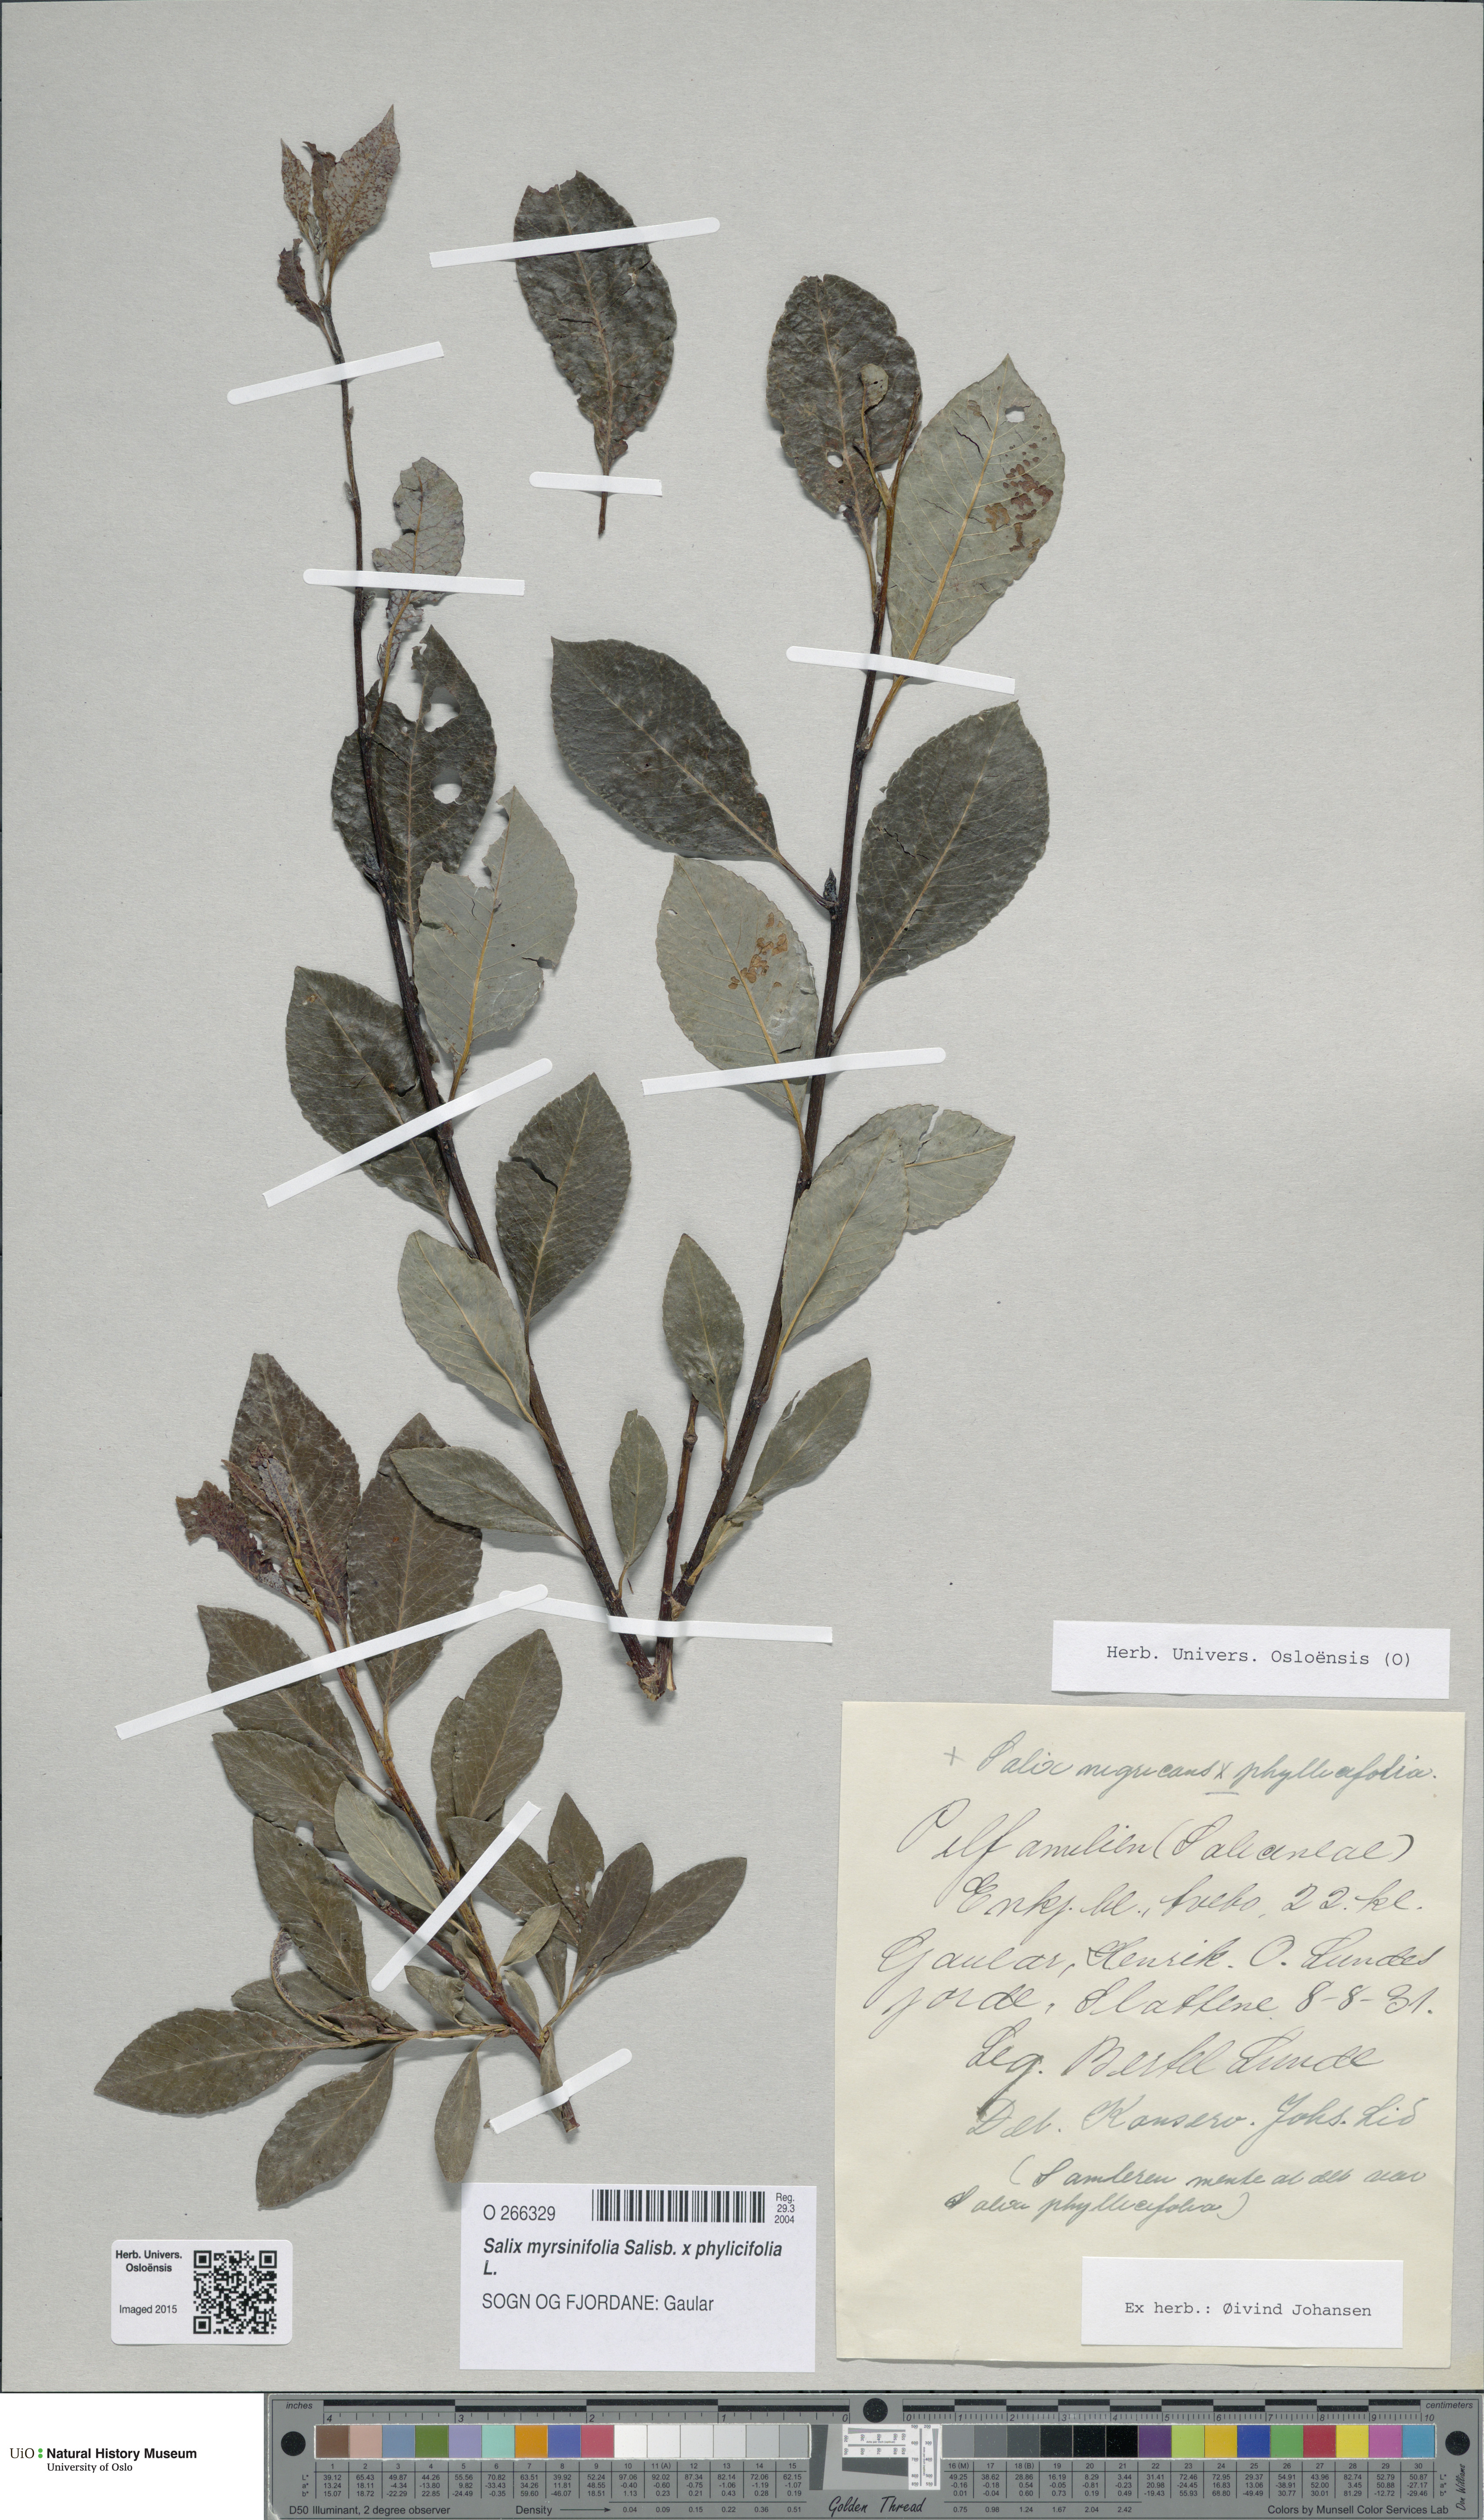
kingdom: Plantae
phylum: Tracheophyta
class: Magnoliopsida
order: Malpighiales
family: Salicaceae
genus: Salix
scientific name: Salix
